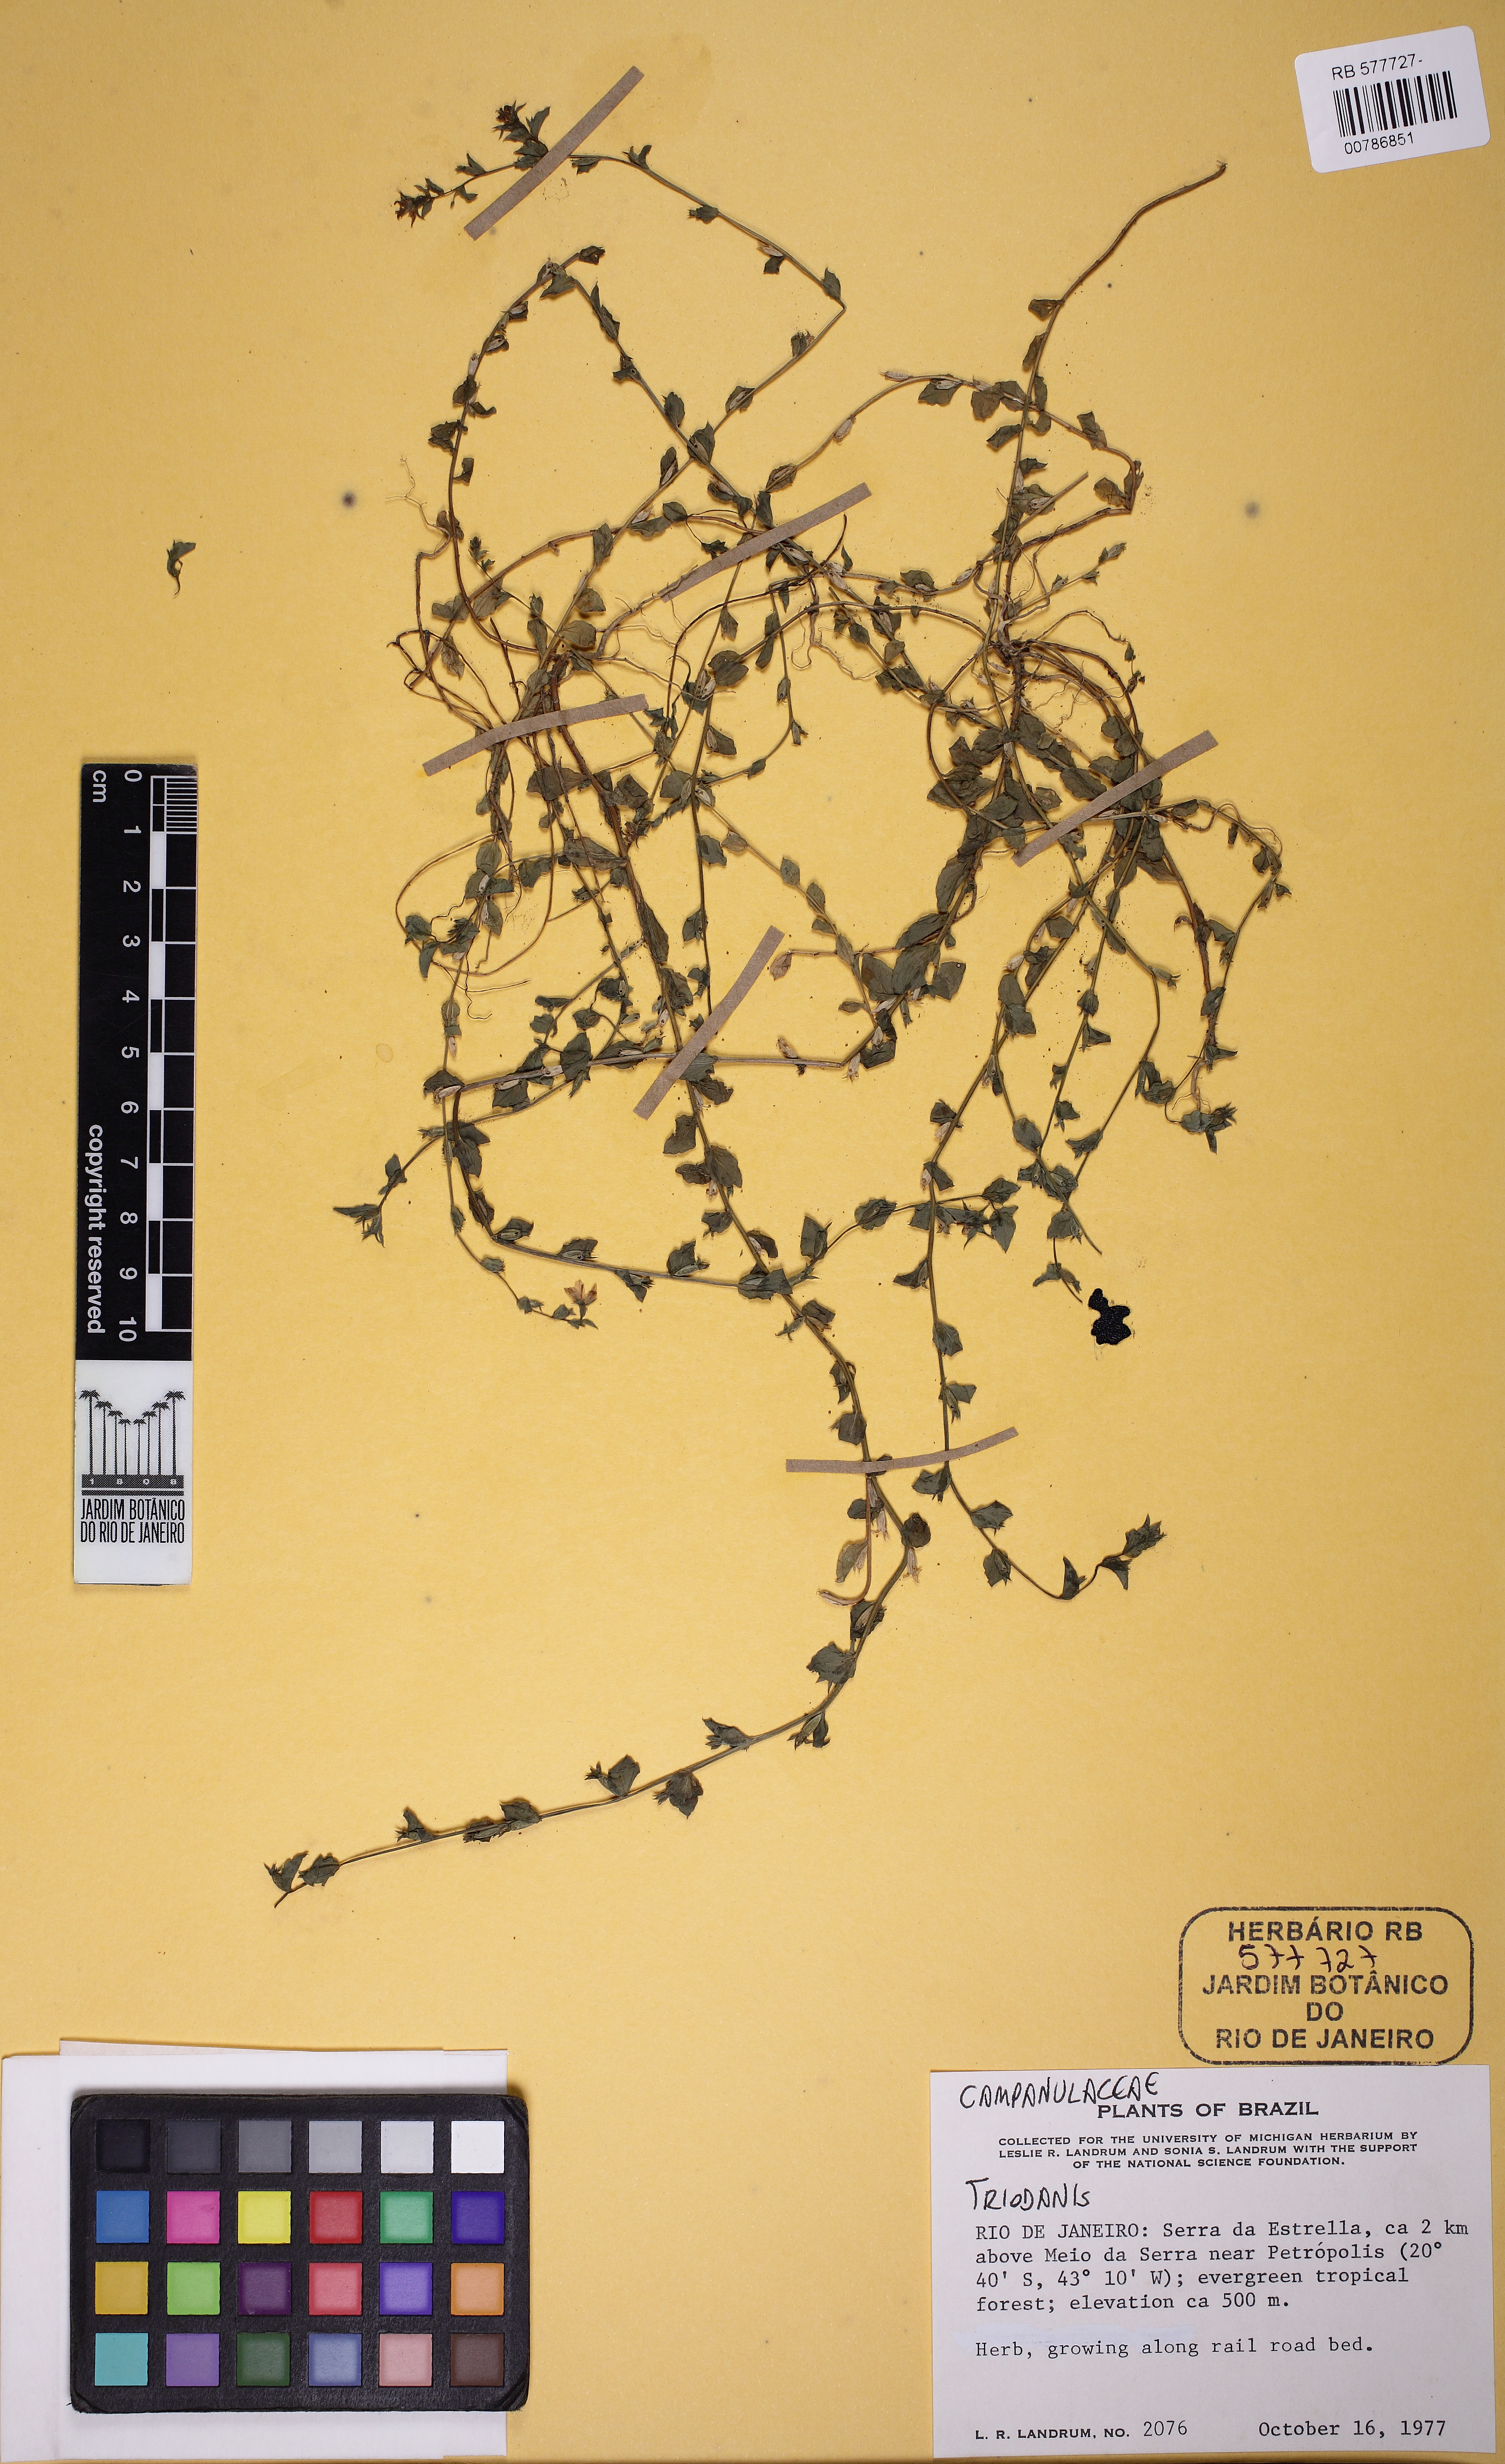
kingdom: Plantae
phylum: Tracheophyta
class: Magnoliopsida
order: Asterales
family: Campanulaceae
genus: Triodanis
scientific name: Triodanis
